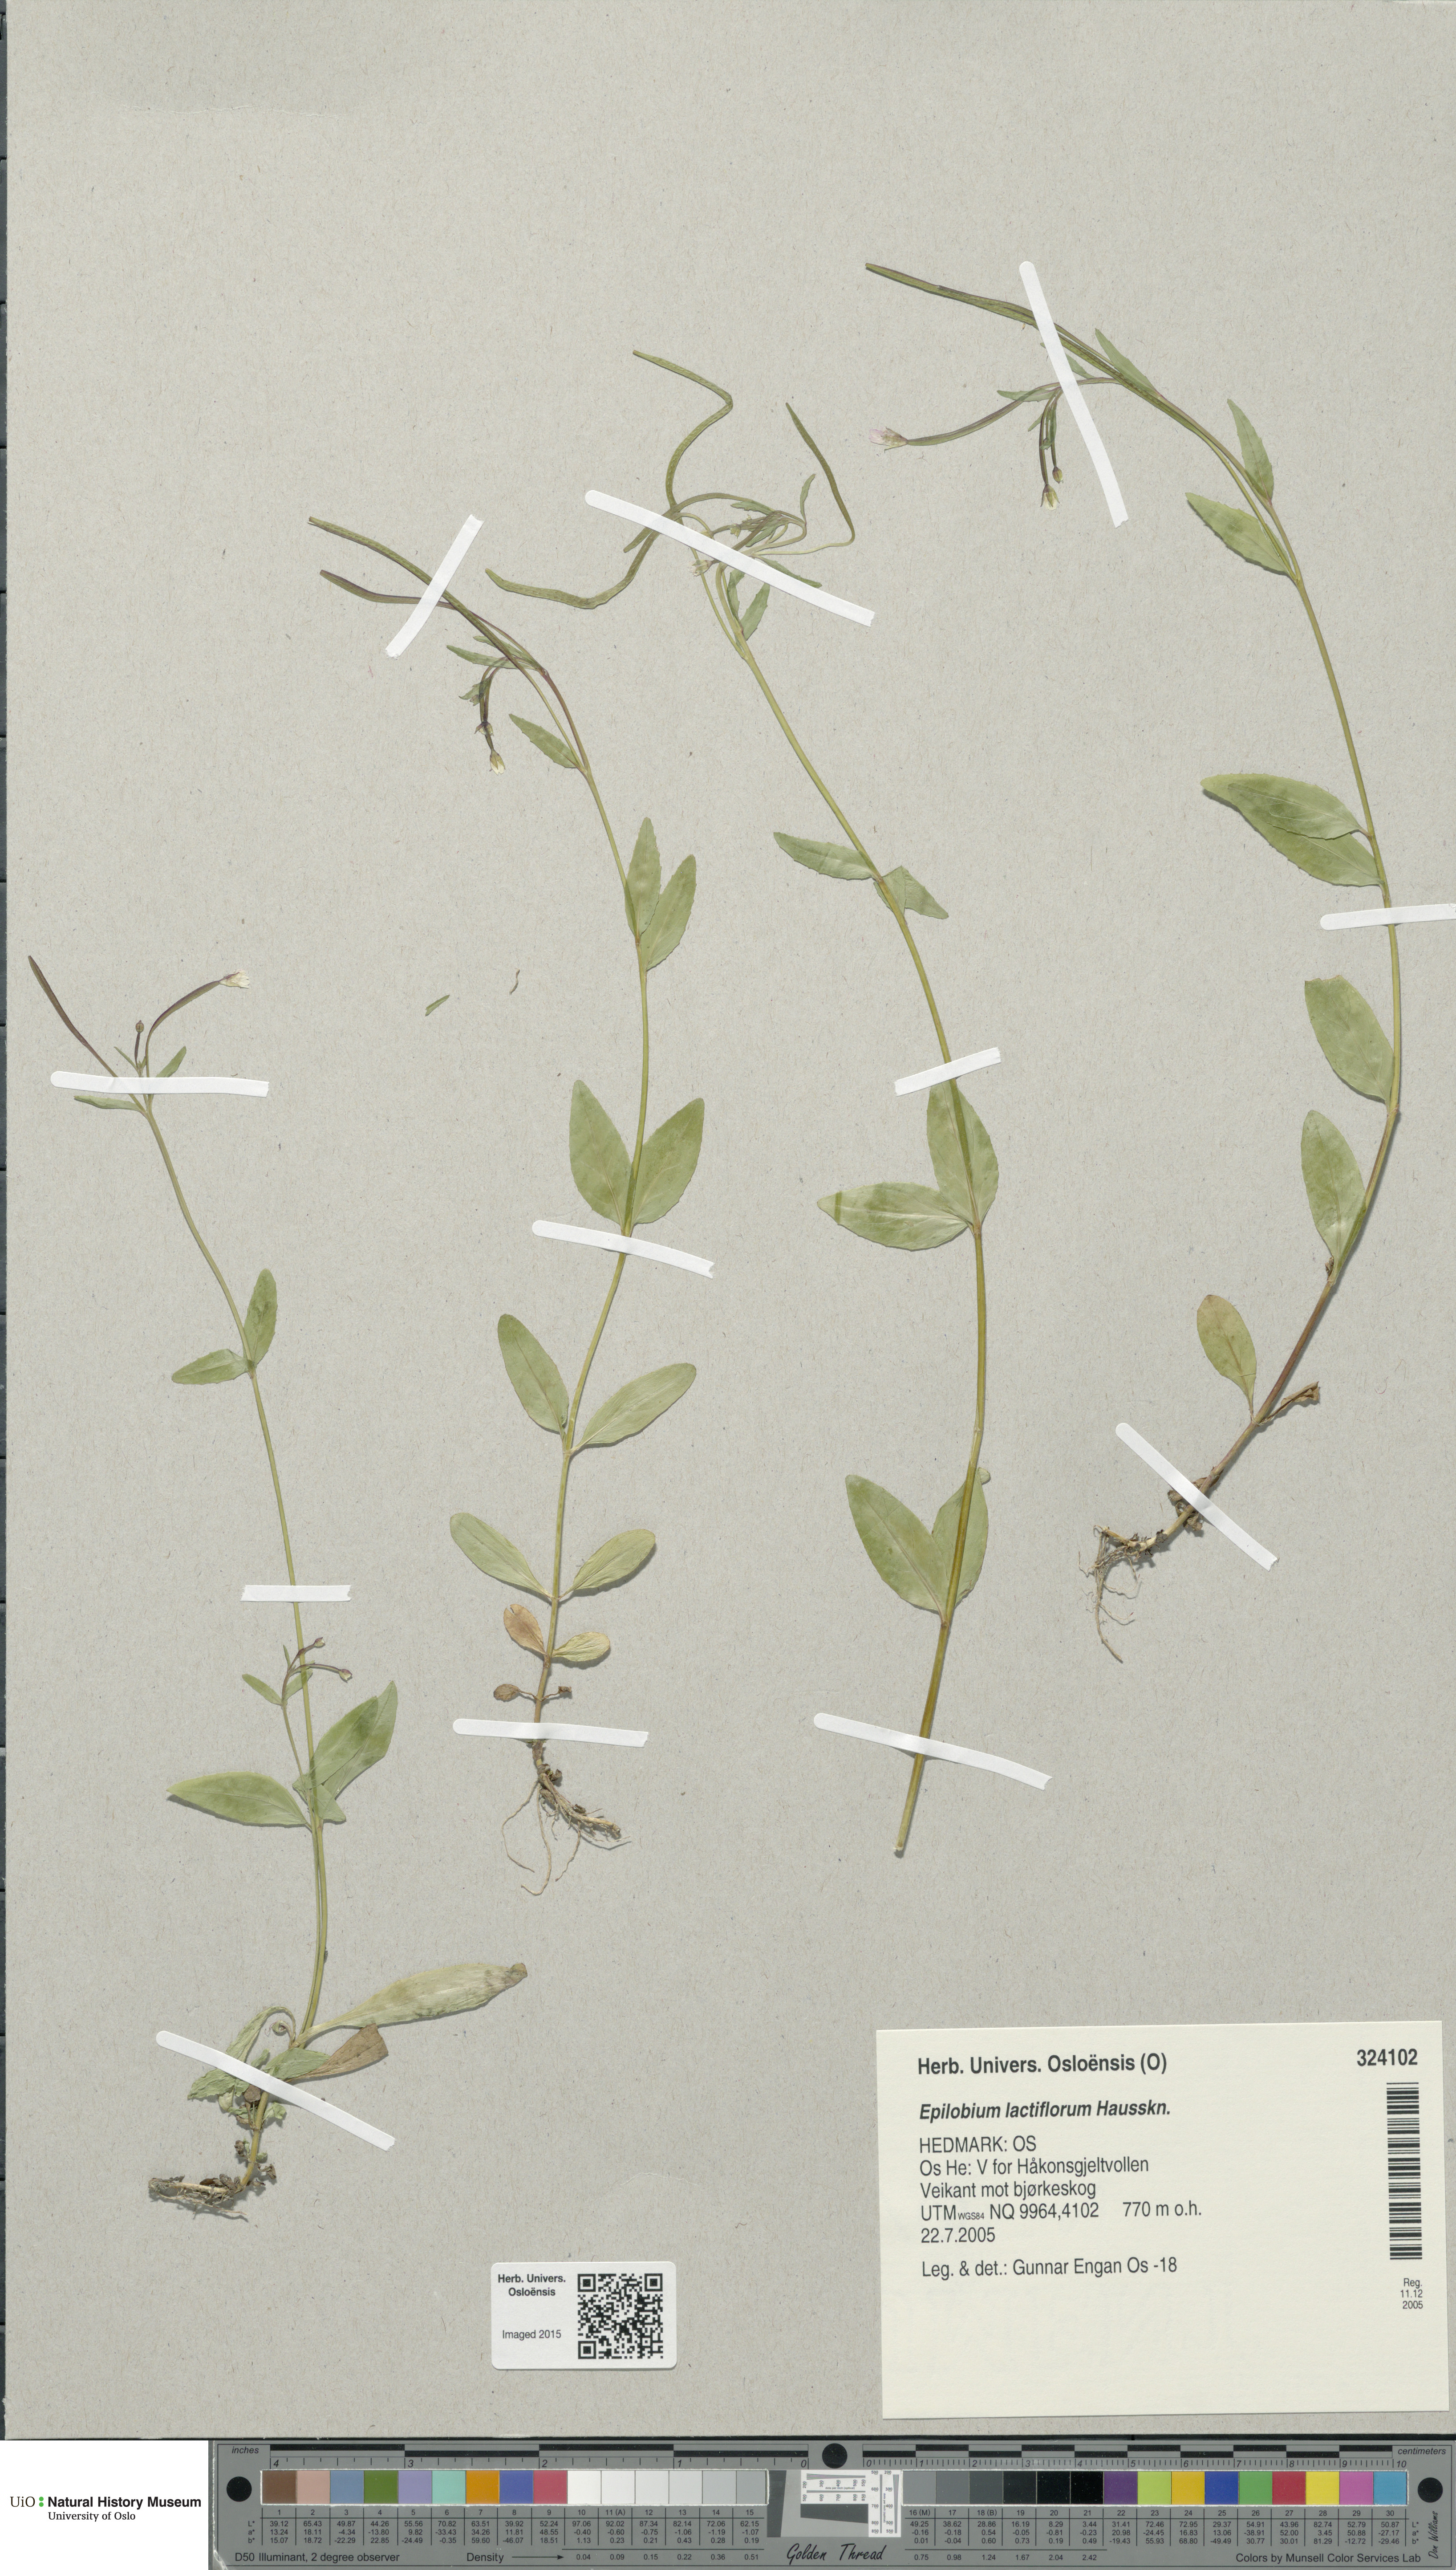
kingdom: Plantae
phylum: Tracheophyta
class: Magnoliopsida
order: Myrtales
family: Onagraceae
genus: Epilobium
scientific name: Epilobium lactiflorum
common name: Milkflower willowherb
